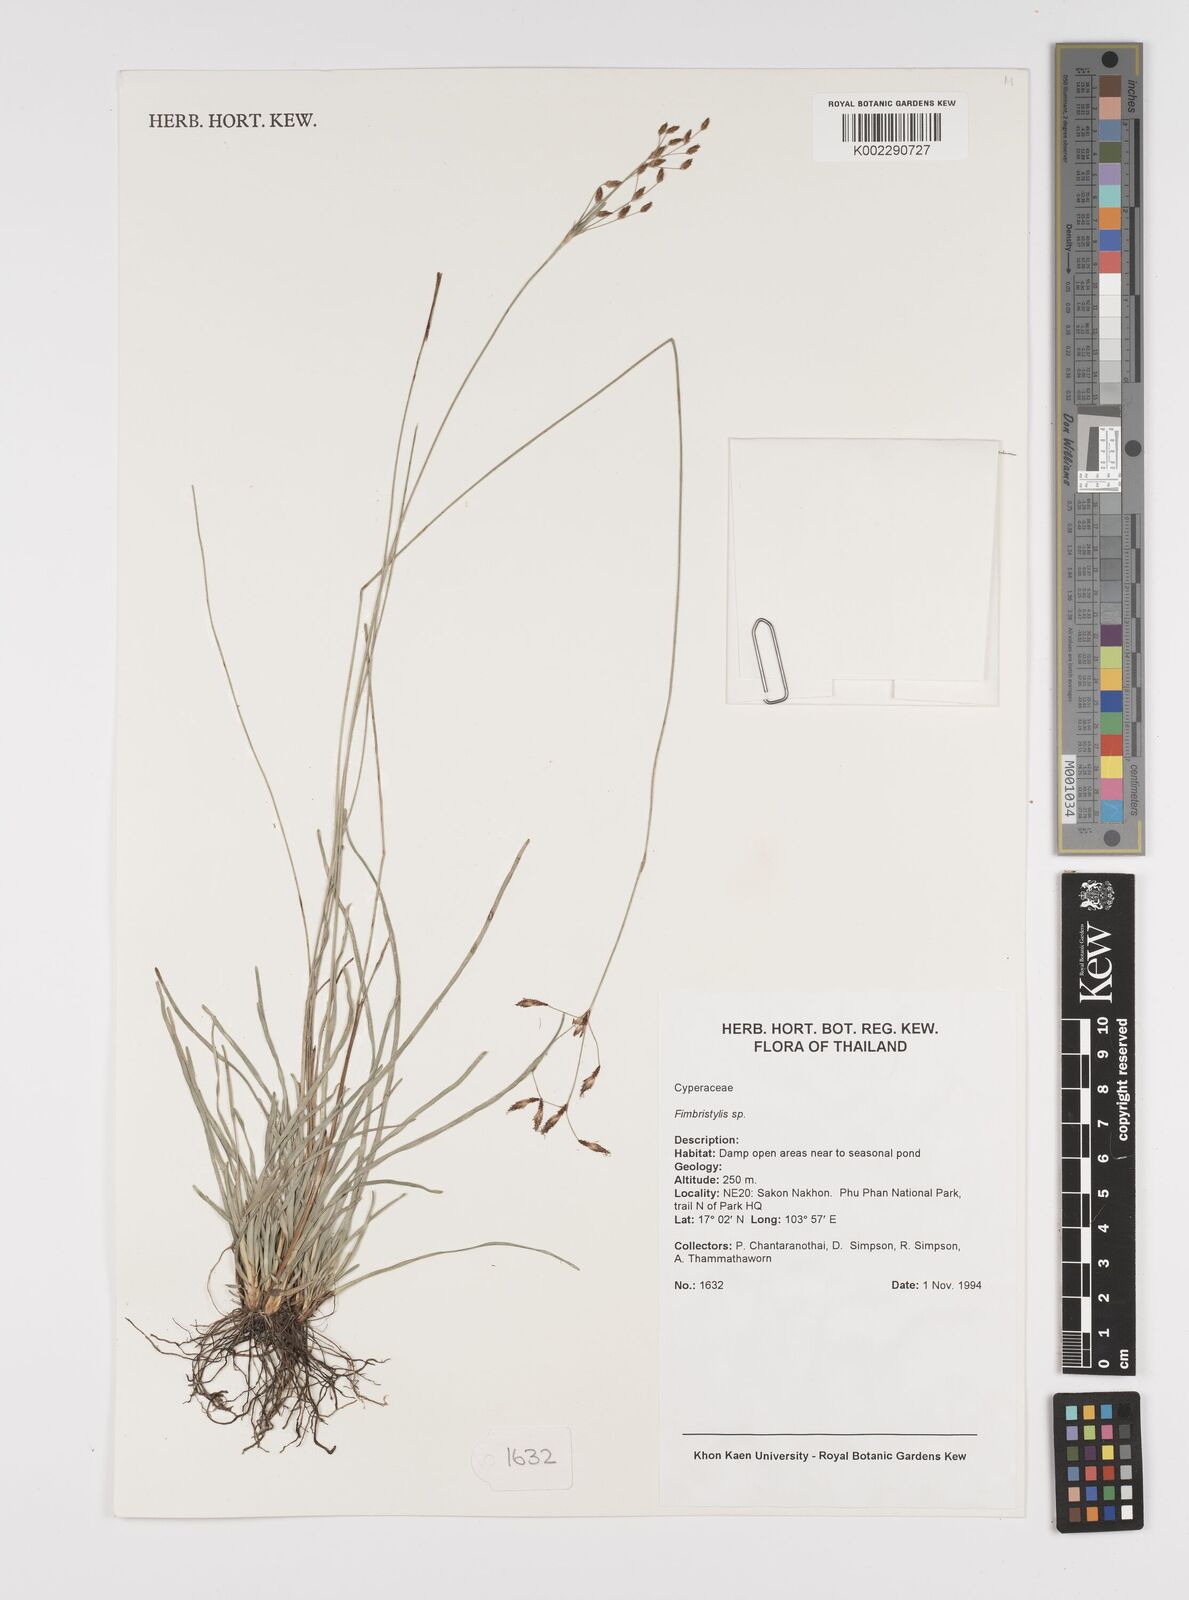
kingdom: Plantae
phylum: Tracheophyta
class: Liliopsida
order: Poales
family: Cyperaceae
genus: Fimbristylis
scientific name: Fimbristylis
